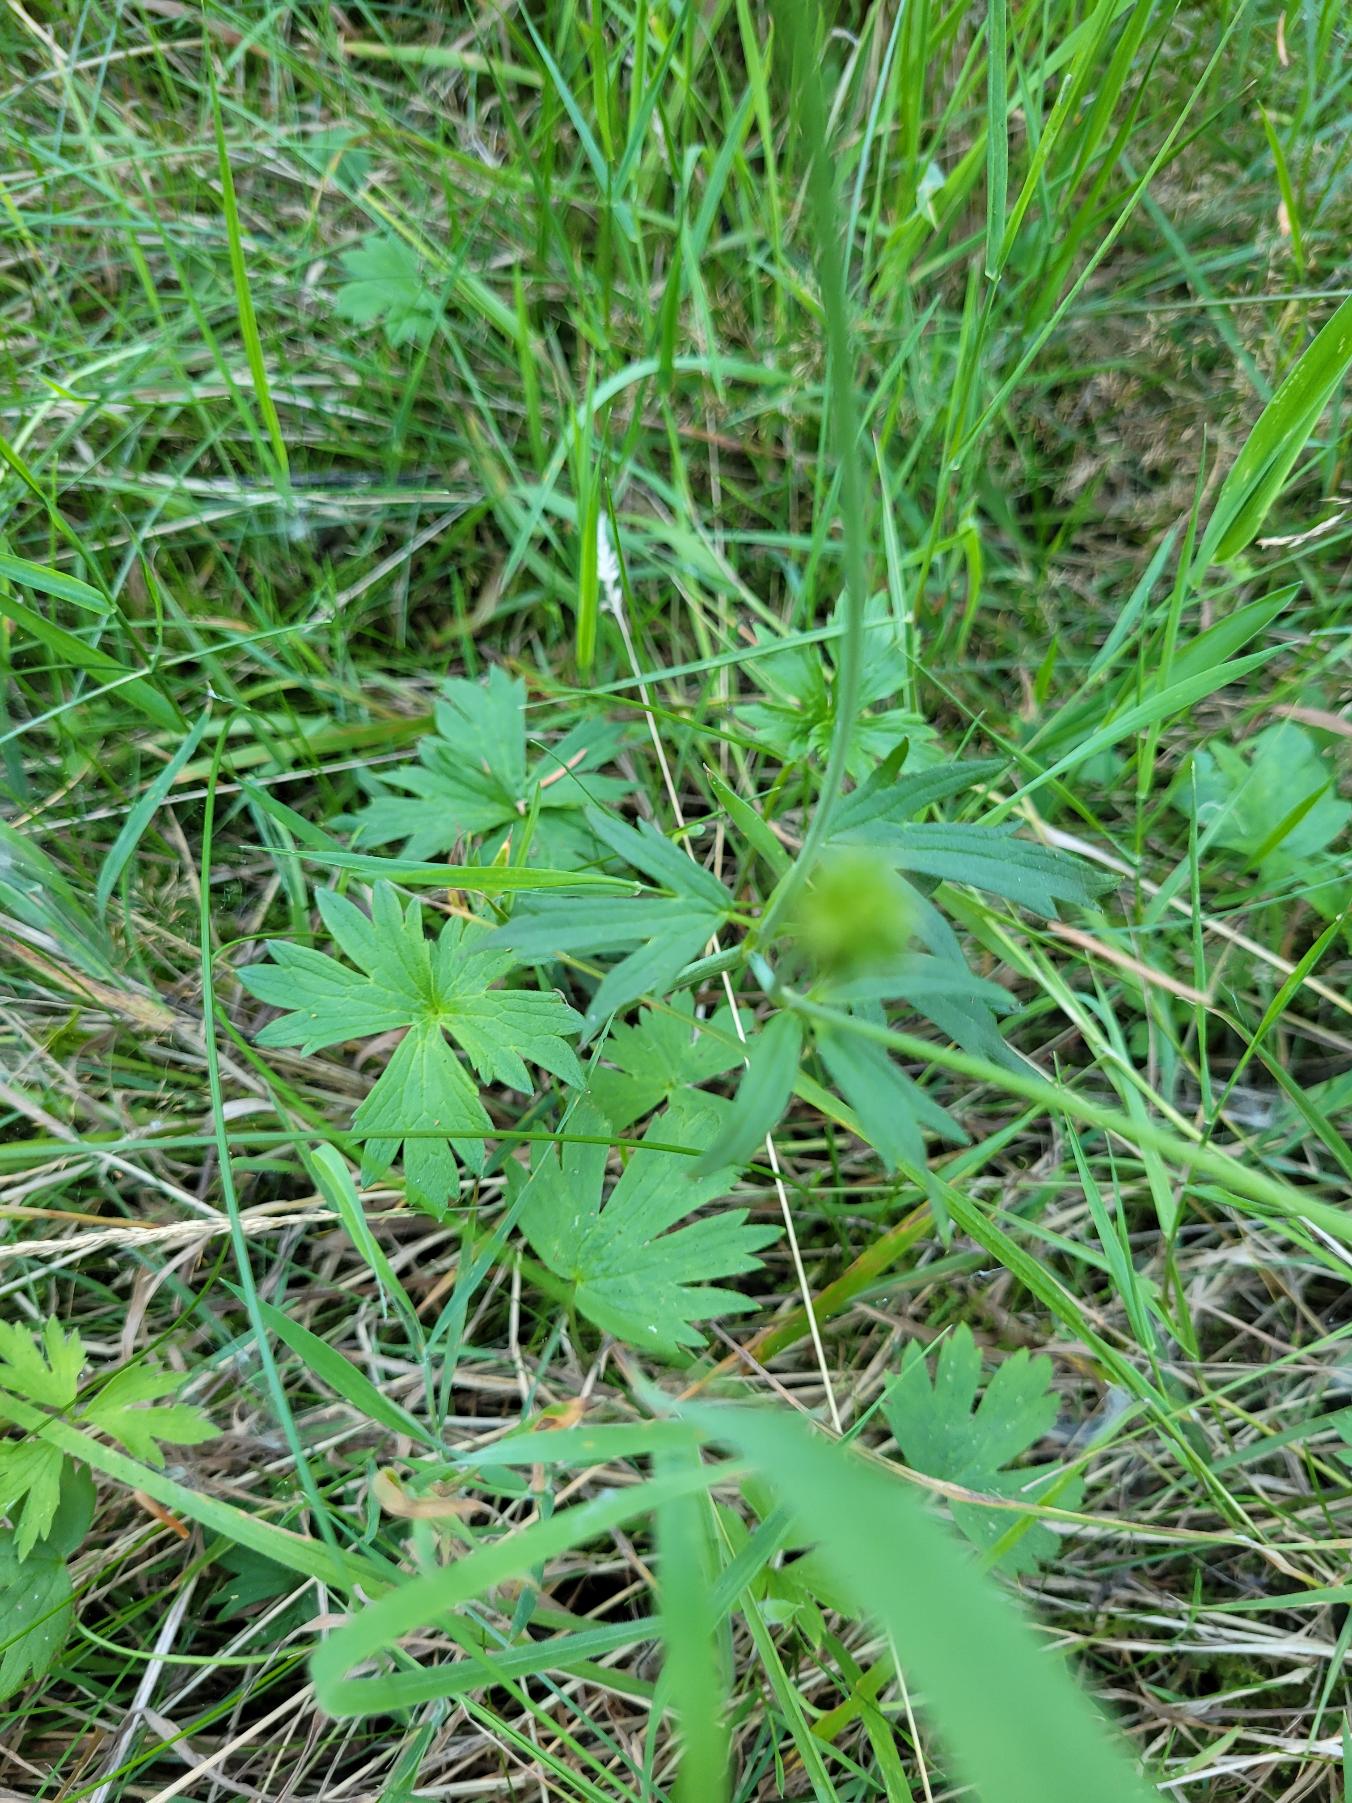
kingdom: Plantae
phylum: Tracheophyta
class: Magnoliopsida
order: Ranunculales
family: Ranunculaceae
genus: Ranunculus
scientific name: Ranunculus acris
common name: Bidende ranunkel
